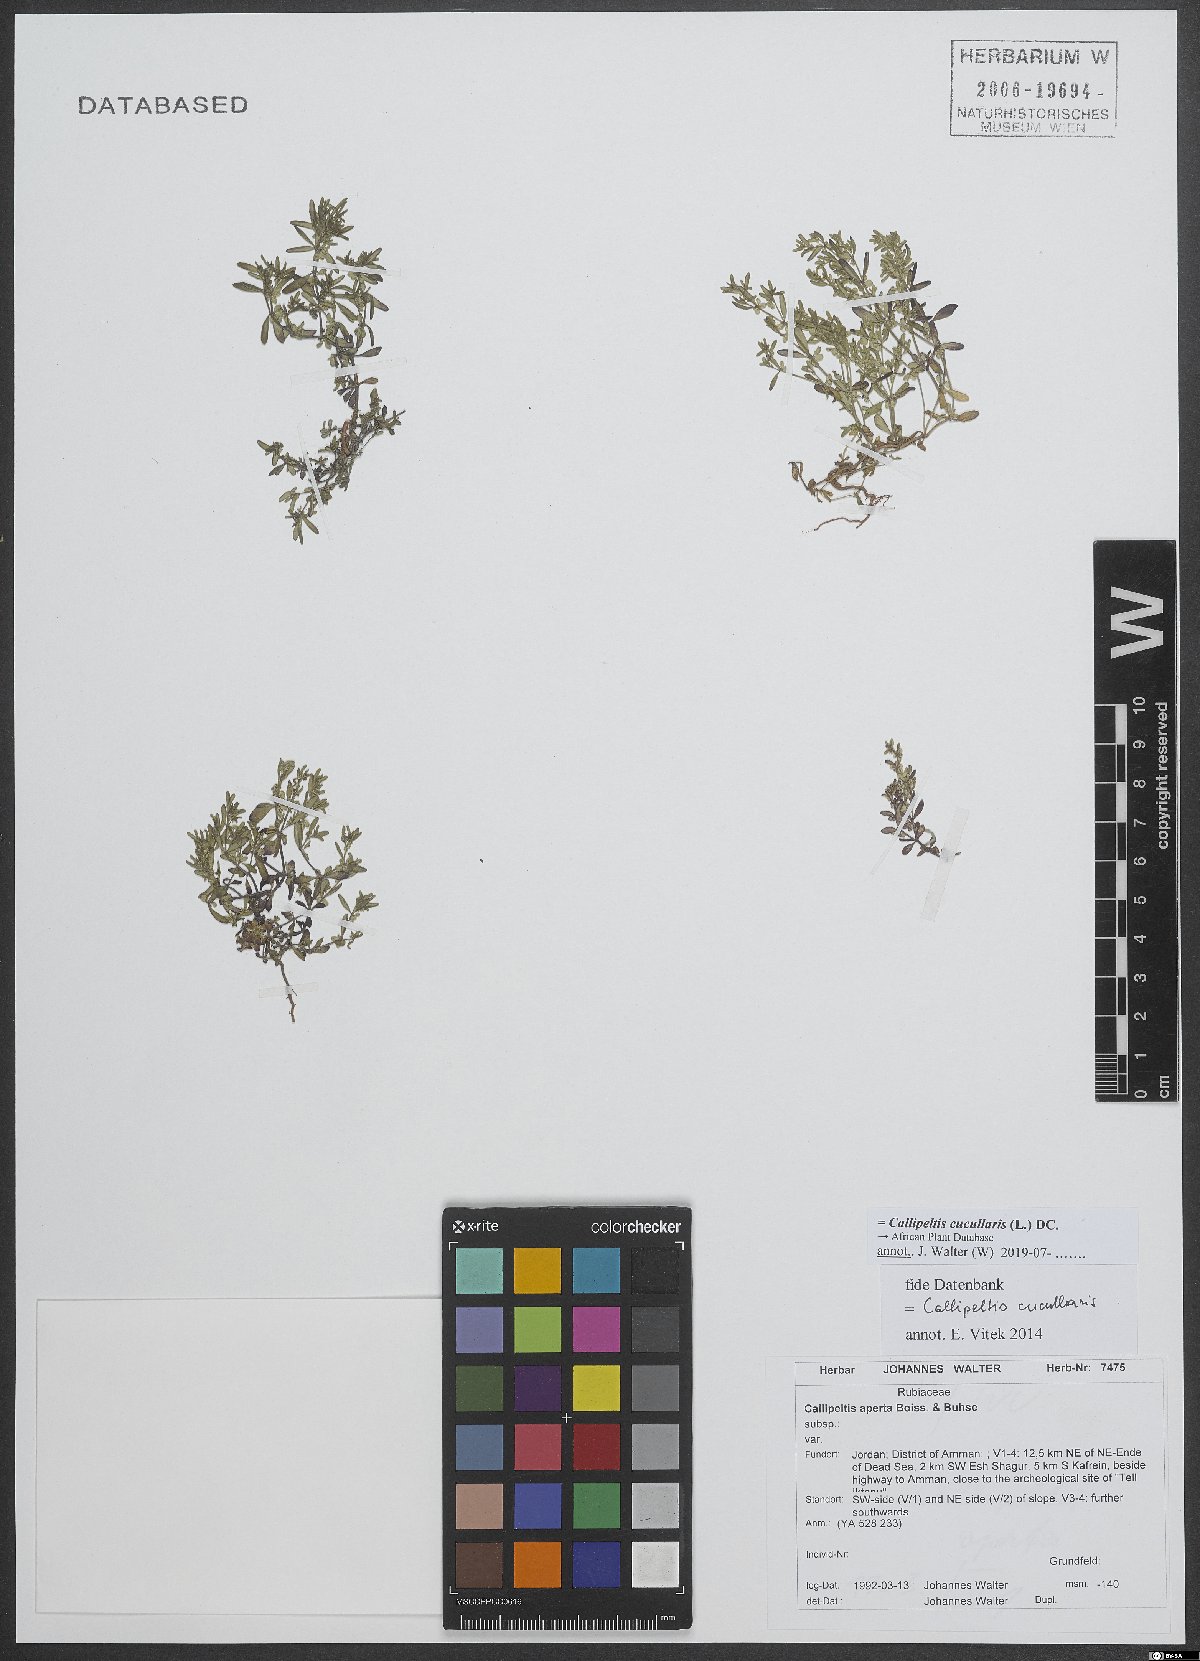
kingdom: Plantae
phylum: Tracheophyta
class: Magnoliopsida
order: Gentianales
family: Rubiaceae
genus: Callipeltis
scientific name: Callipeltis cucullaris
